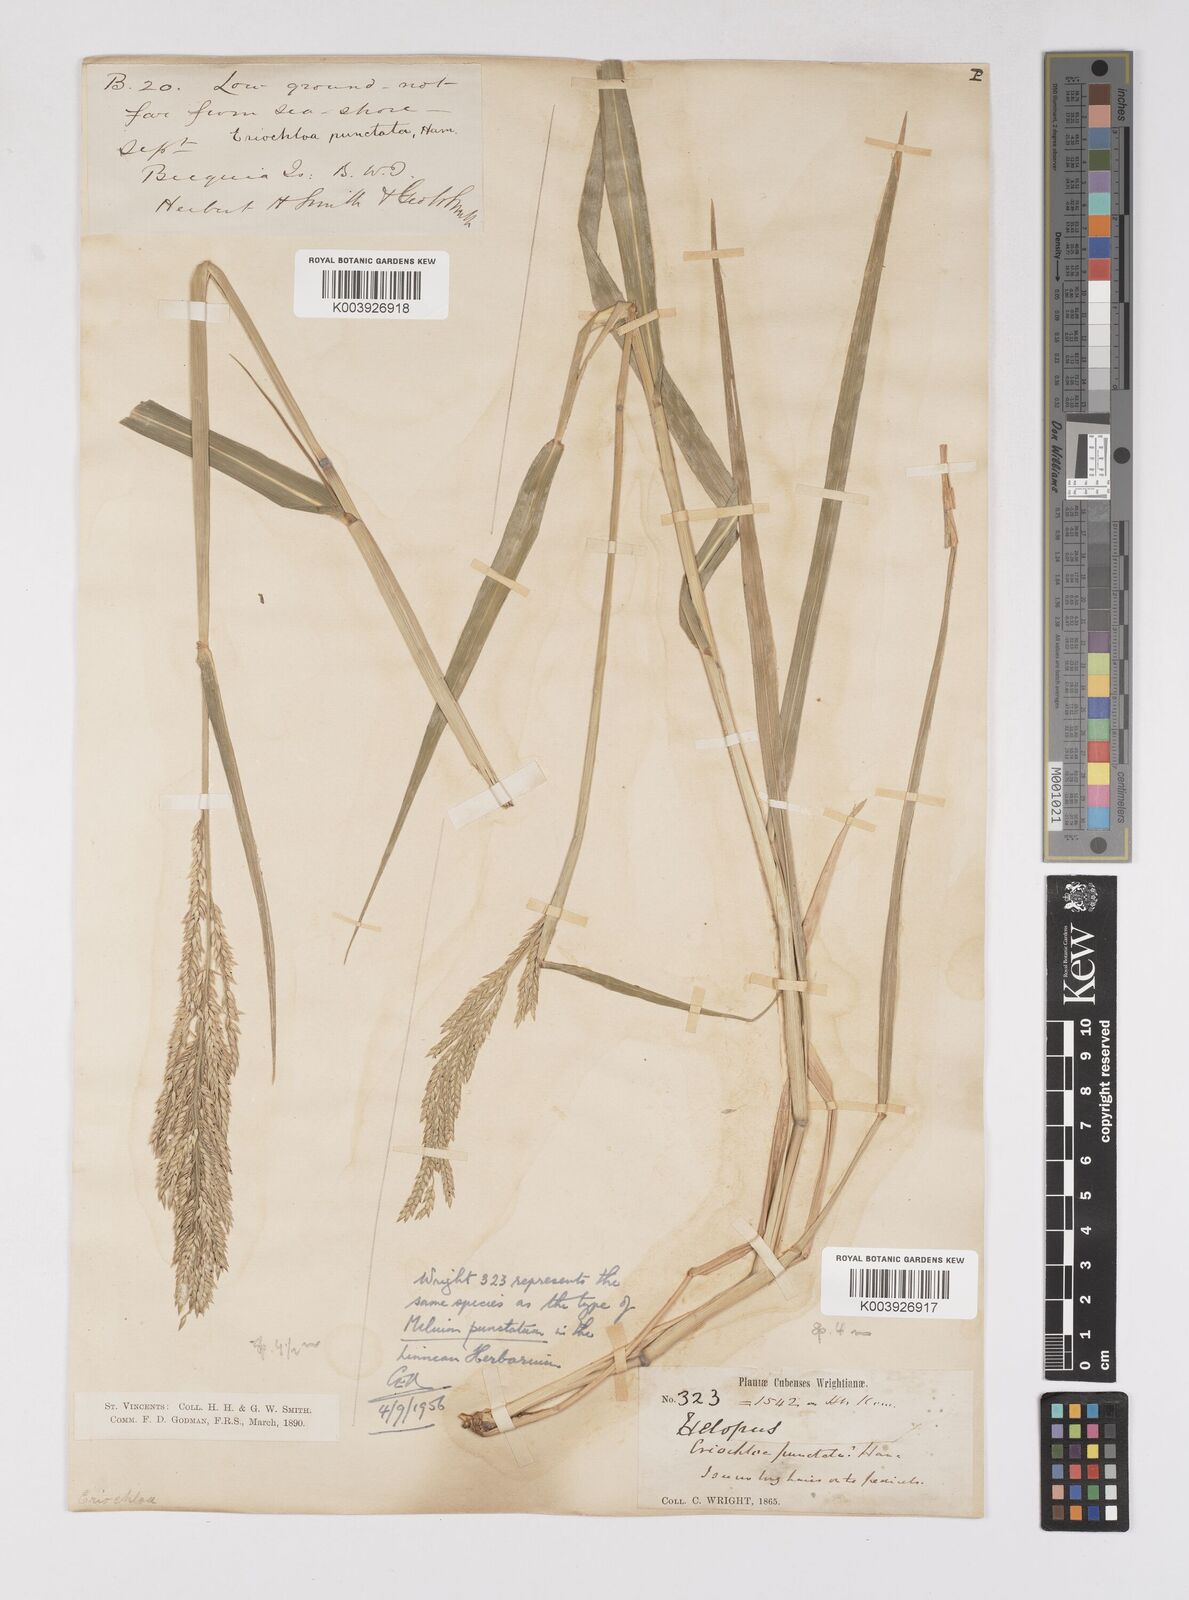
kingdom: Plantae
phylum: Tracheophyta
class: Liliopsida
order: Poales
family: Poaceae
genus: Eriochloa
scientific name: Eriochloa punctata
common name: Louisiana cupgrass
